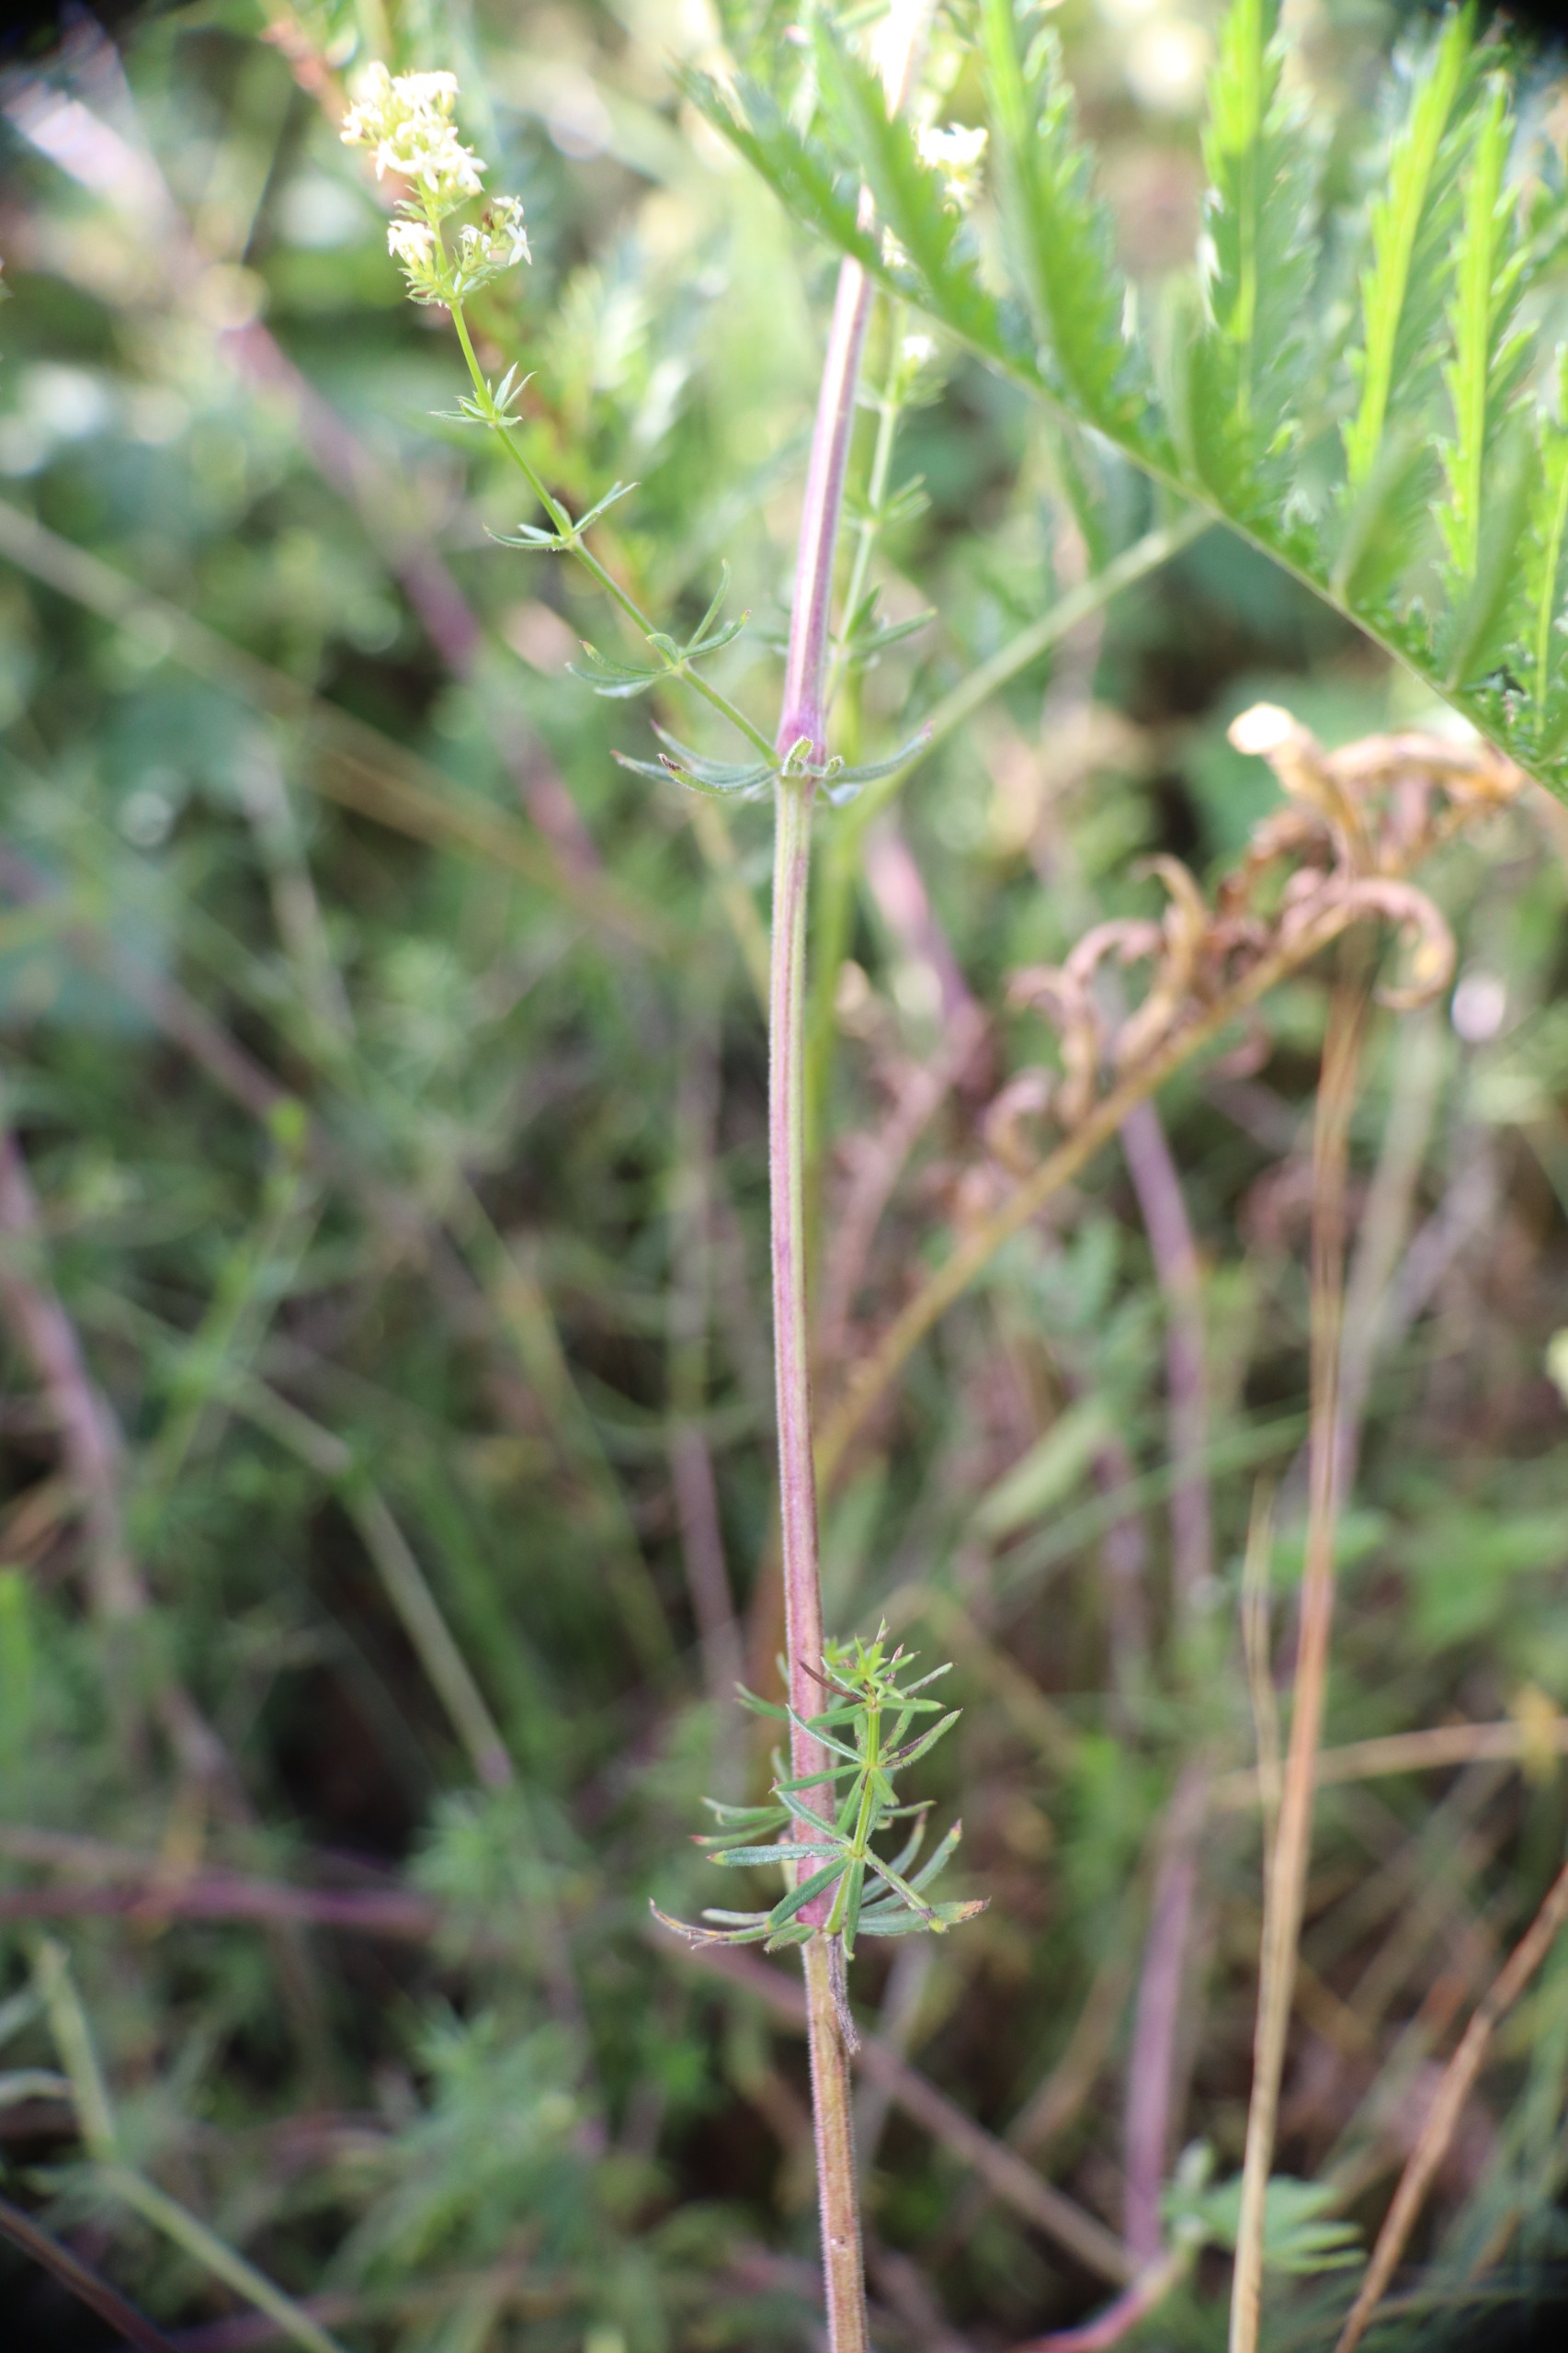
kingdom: Plantae
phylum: Tracheophyta
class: Magnoliopsida
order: Gentianales
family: Rubiaceae
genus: Galium
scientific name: Galium mollugo
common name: Hvid snerre
